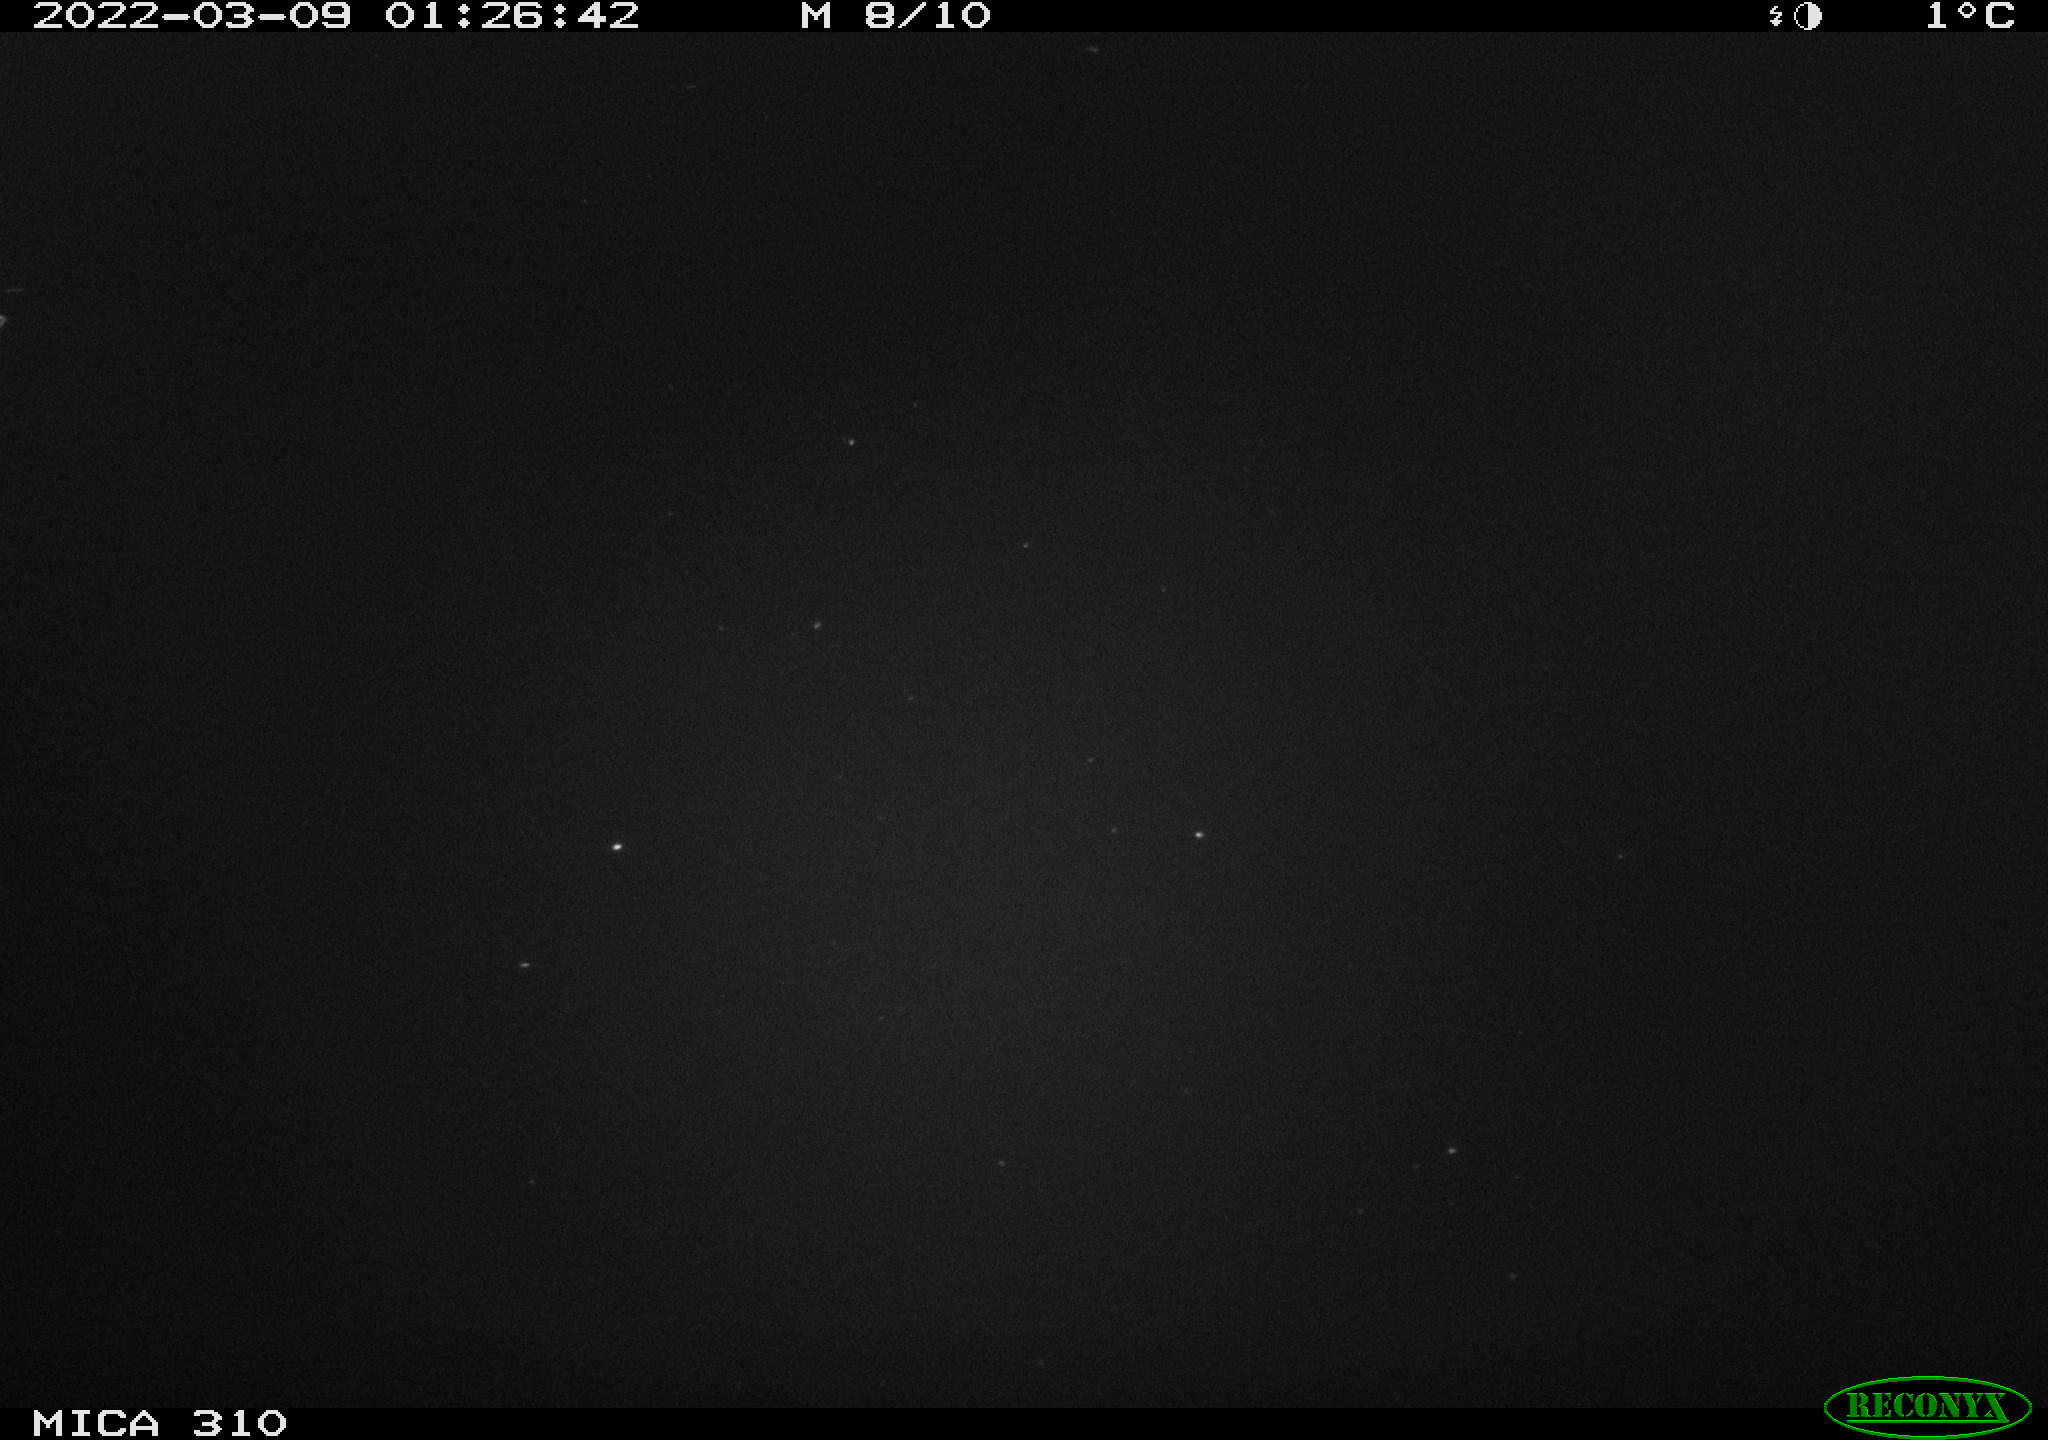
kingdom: Animalia
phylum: Chordata
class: Aves
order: Anseriformes
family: Anatidae
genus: Anas
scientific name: Anas platyrhynchos
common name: Mallard
